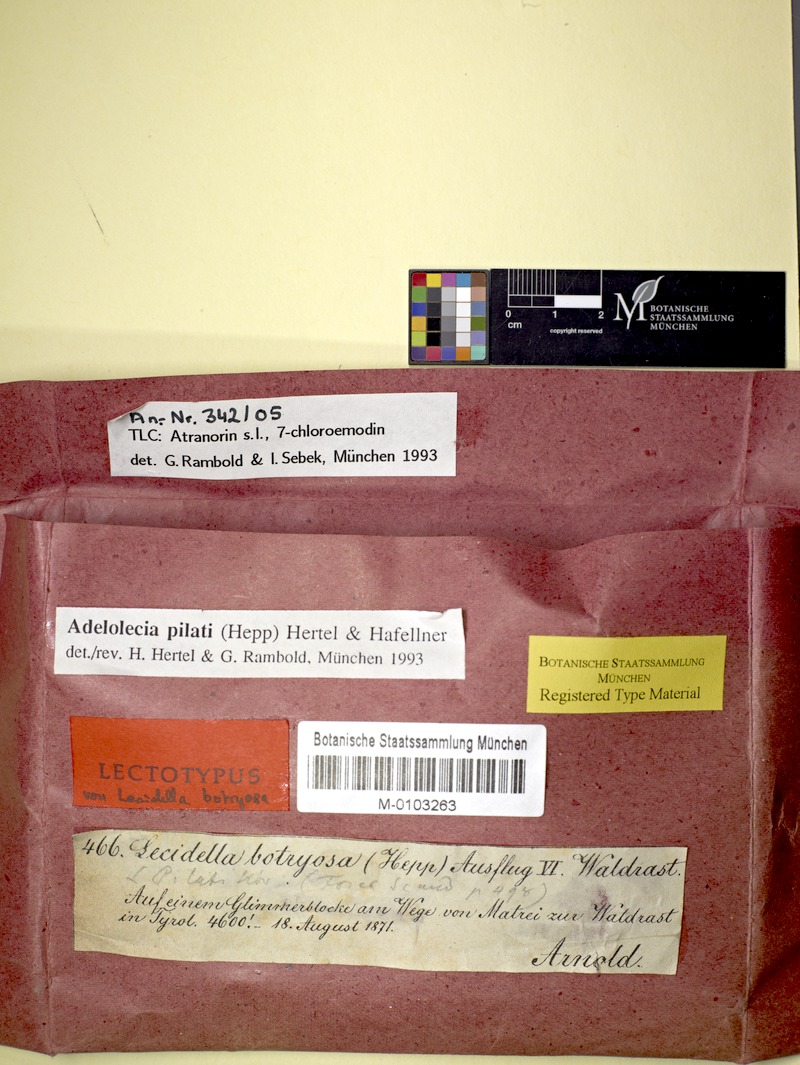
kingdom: Fungi
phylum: Ascomycota
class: Lecanoromycetes
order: Lecanorales
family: Lecanoraceae
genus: Adelolecia
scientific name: Adelolecia pilati
